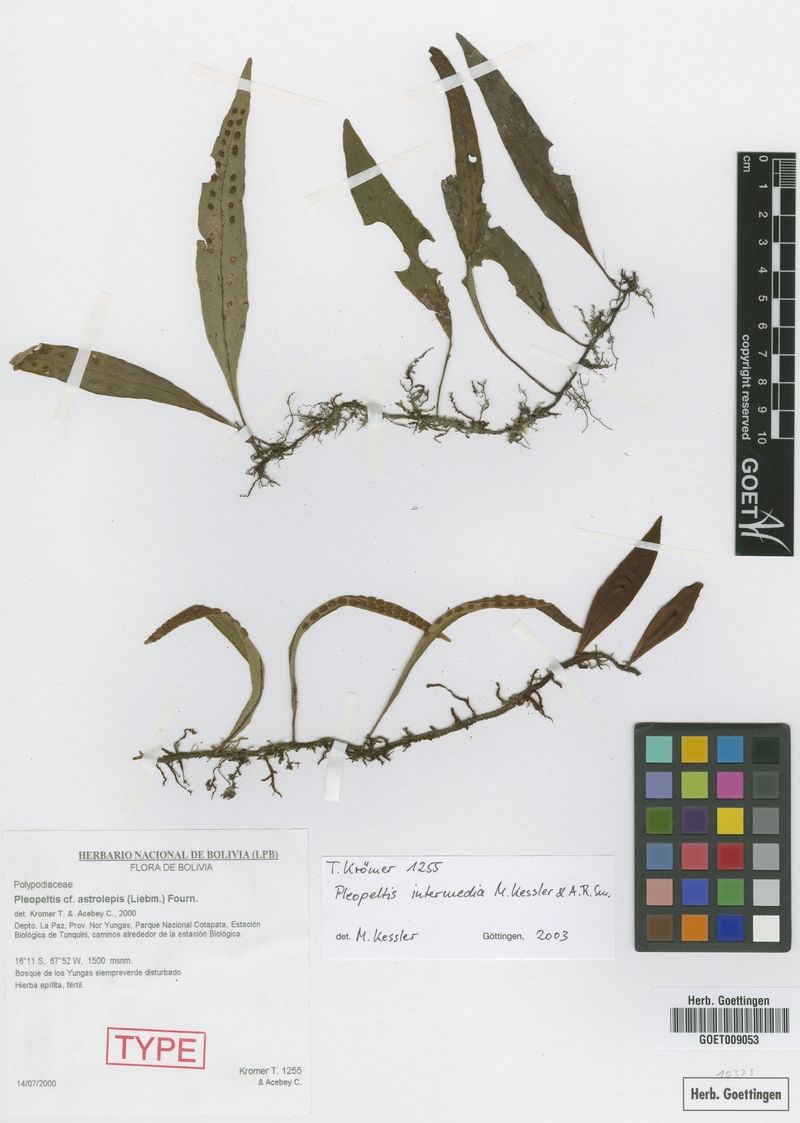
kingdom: Plantae
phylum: Tracheophyta
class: Polypodiopsida
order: Polypodiales
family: Polypodiaceae
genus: Pleopeltis
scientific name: Pleopeltis intermedia
